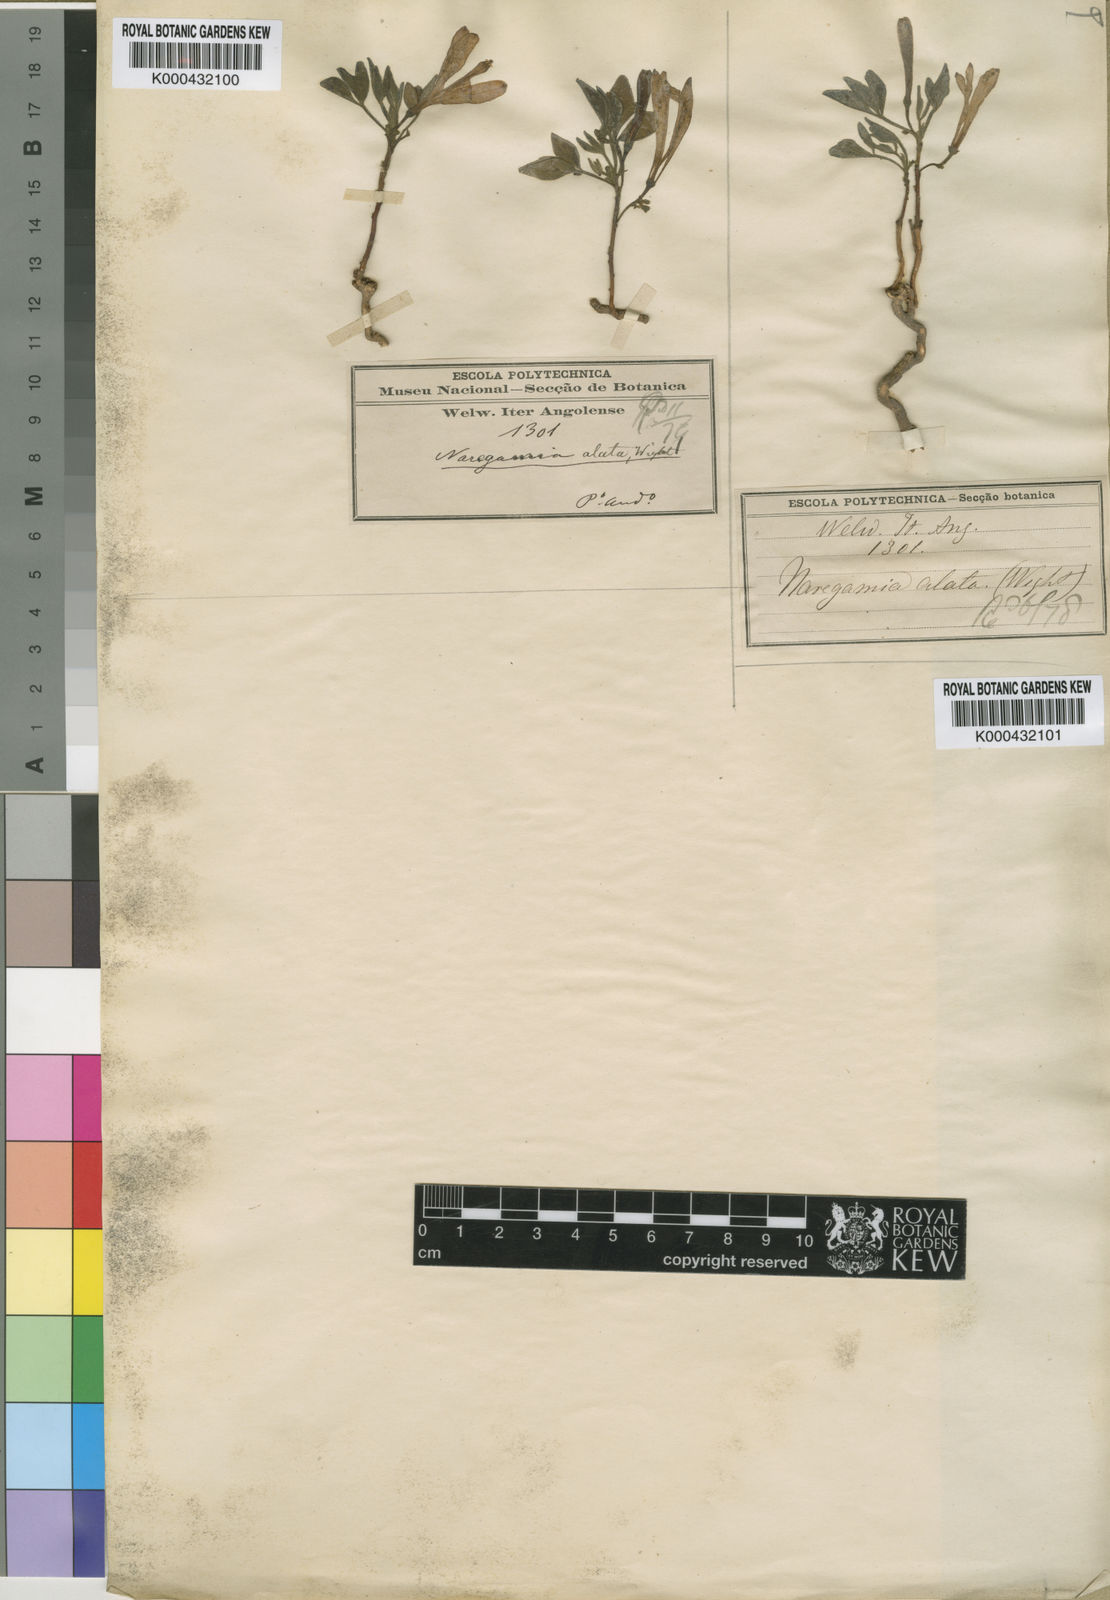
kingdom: Plantae
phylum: Tracheophyta
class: Magnoliopsida
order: Sapindales
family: Meliaceae
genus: Turraea
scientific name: Turraea africana
